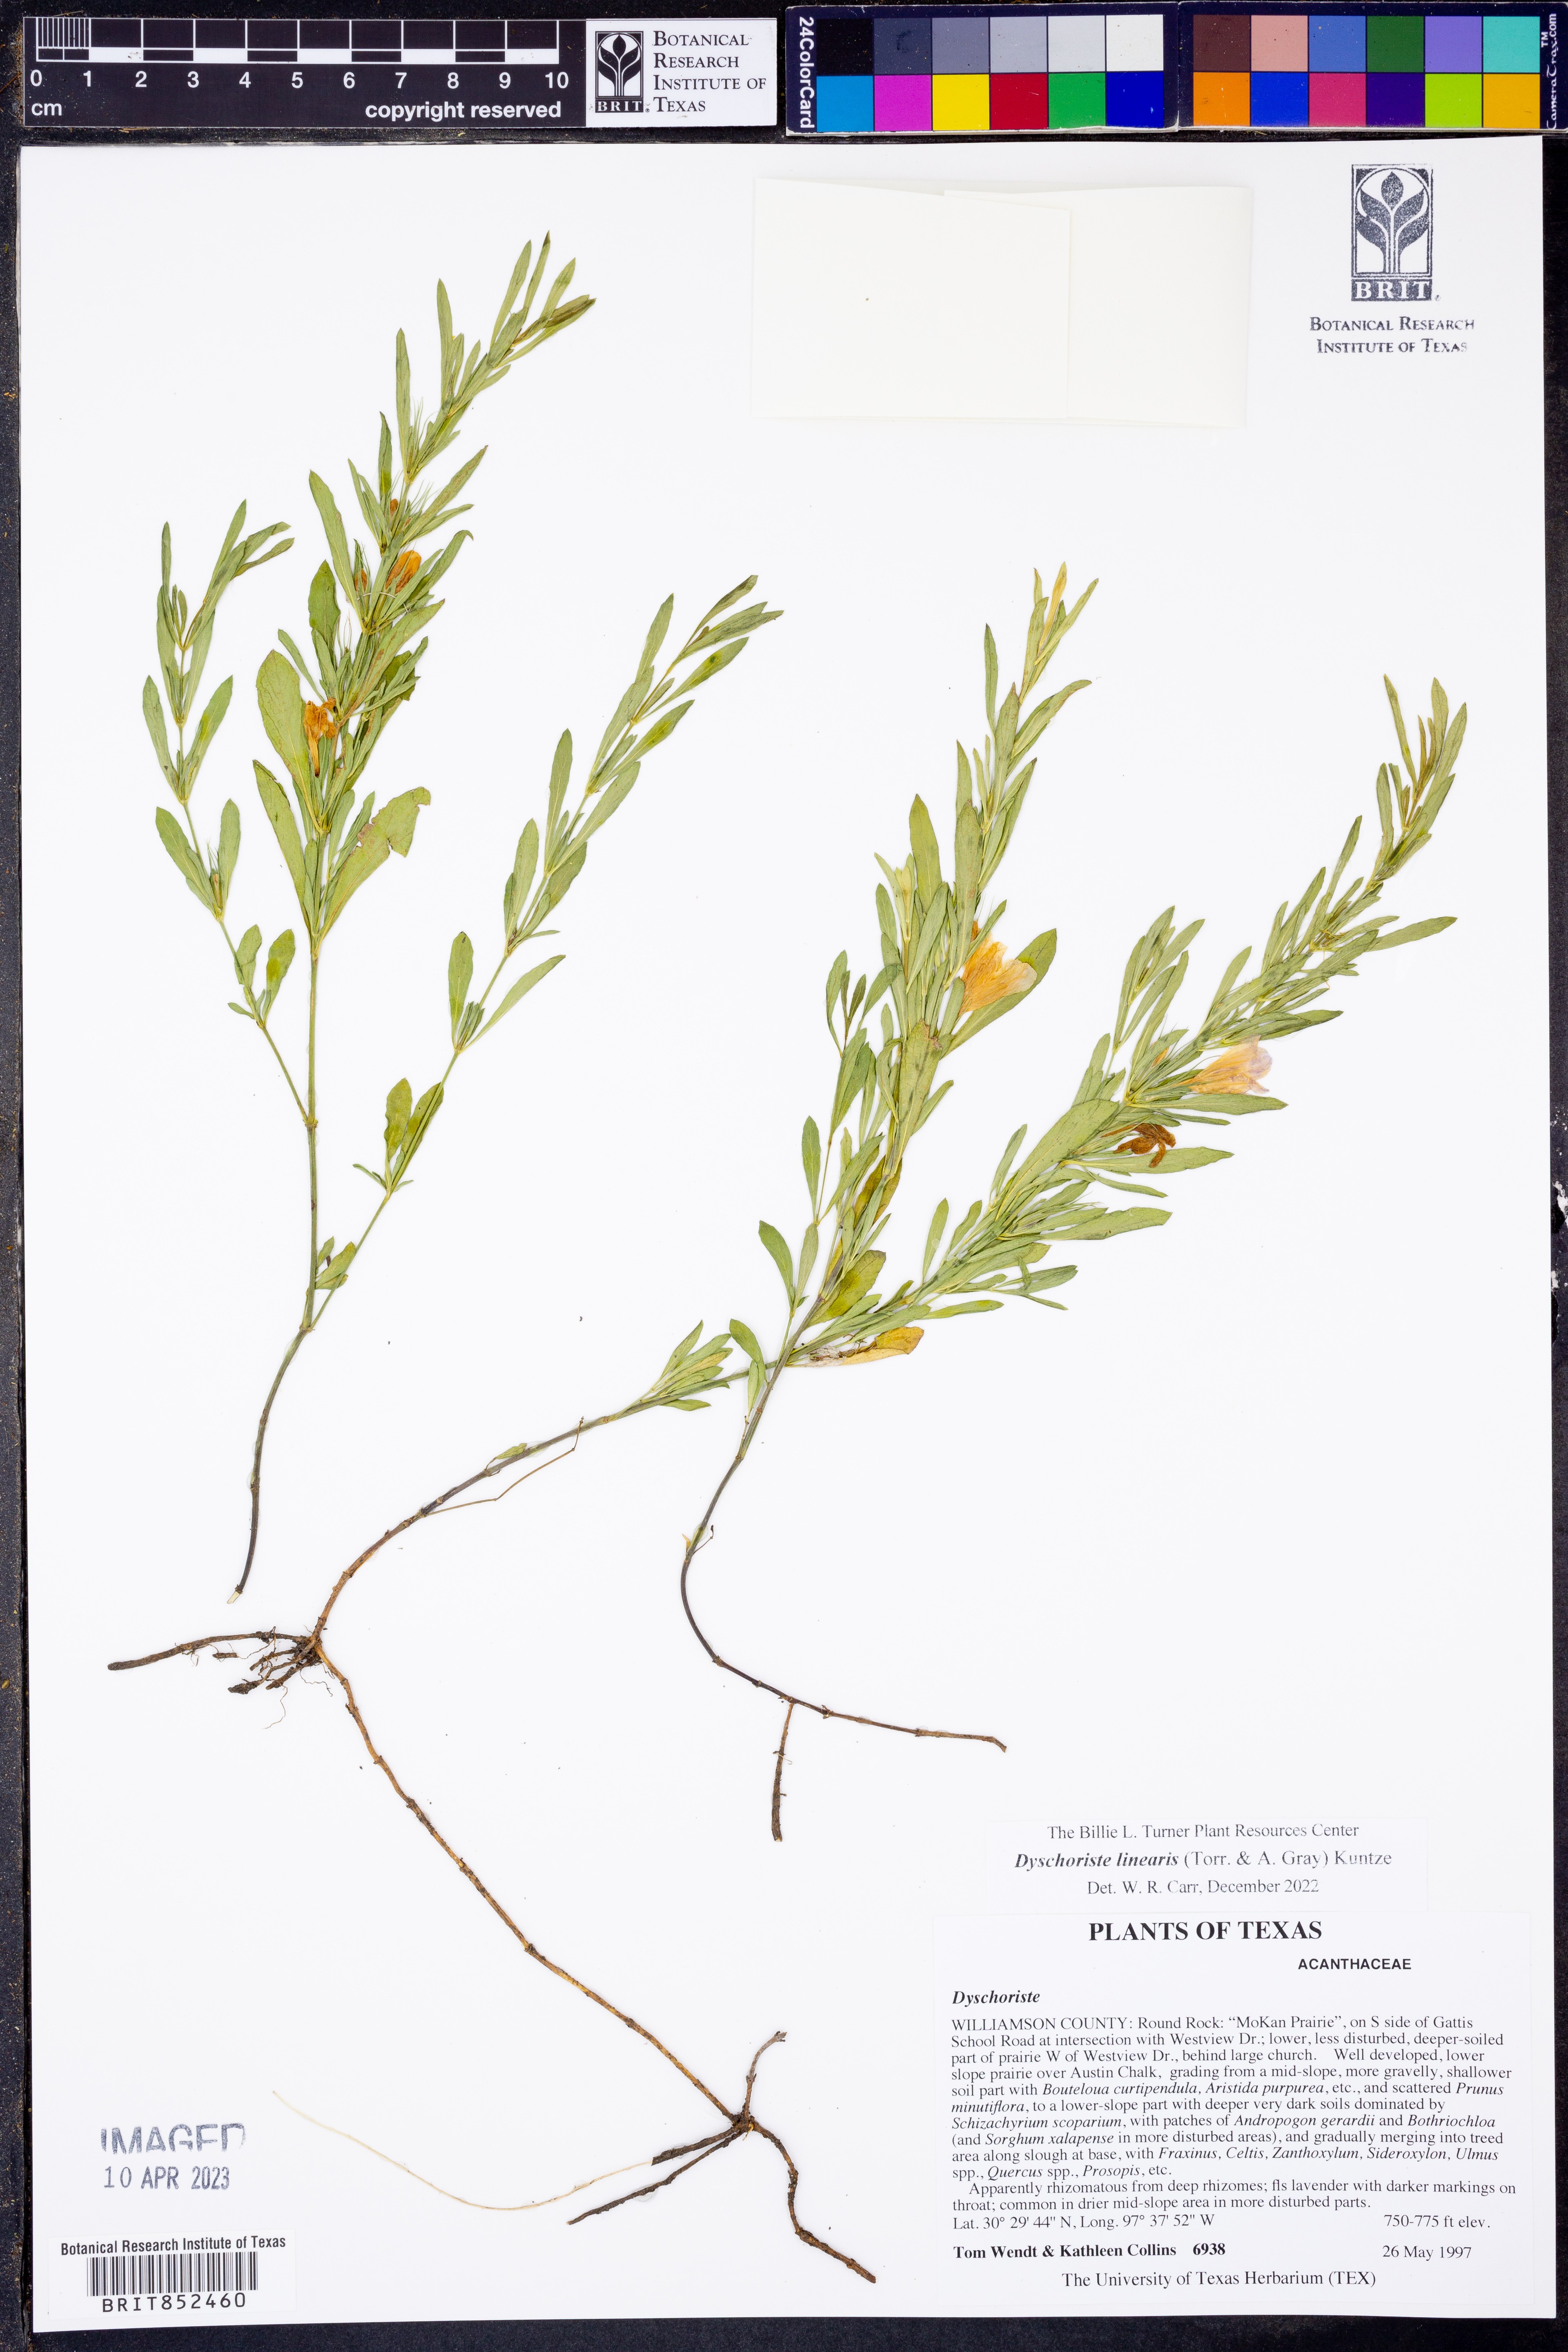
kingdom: Plantae
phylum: Tracheophyta
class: Magnoliopsida
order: Lamiales
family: Acanthaceae
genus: Dyschoriste
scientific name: Dyschoriste linearis
